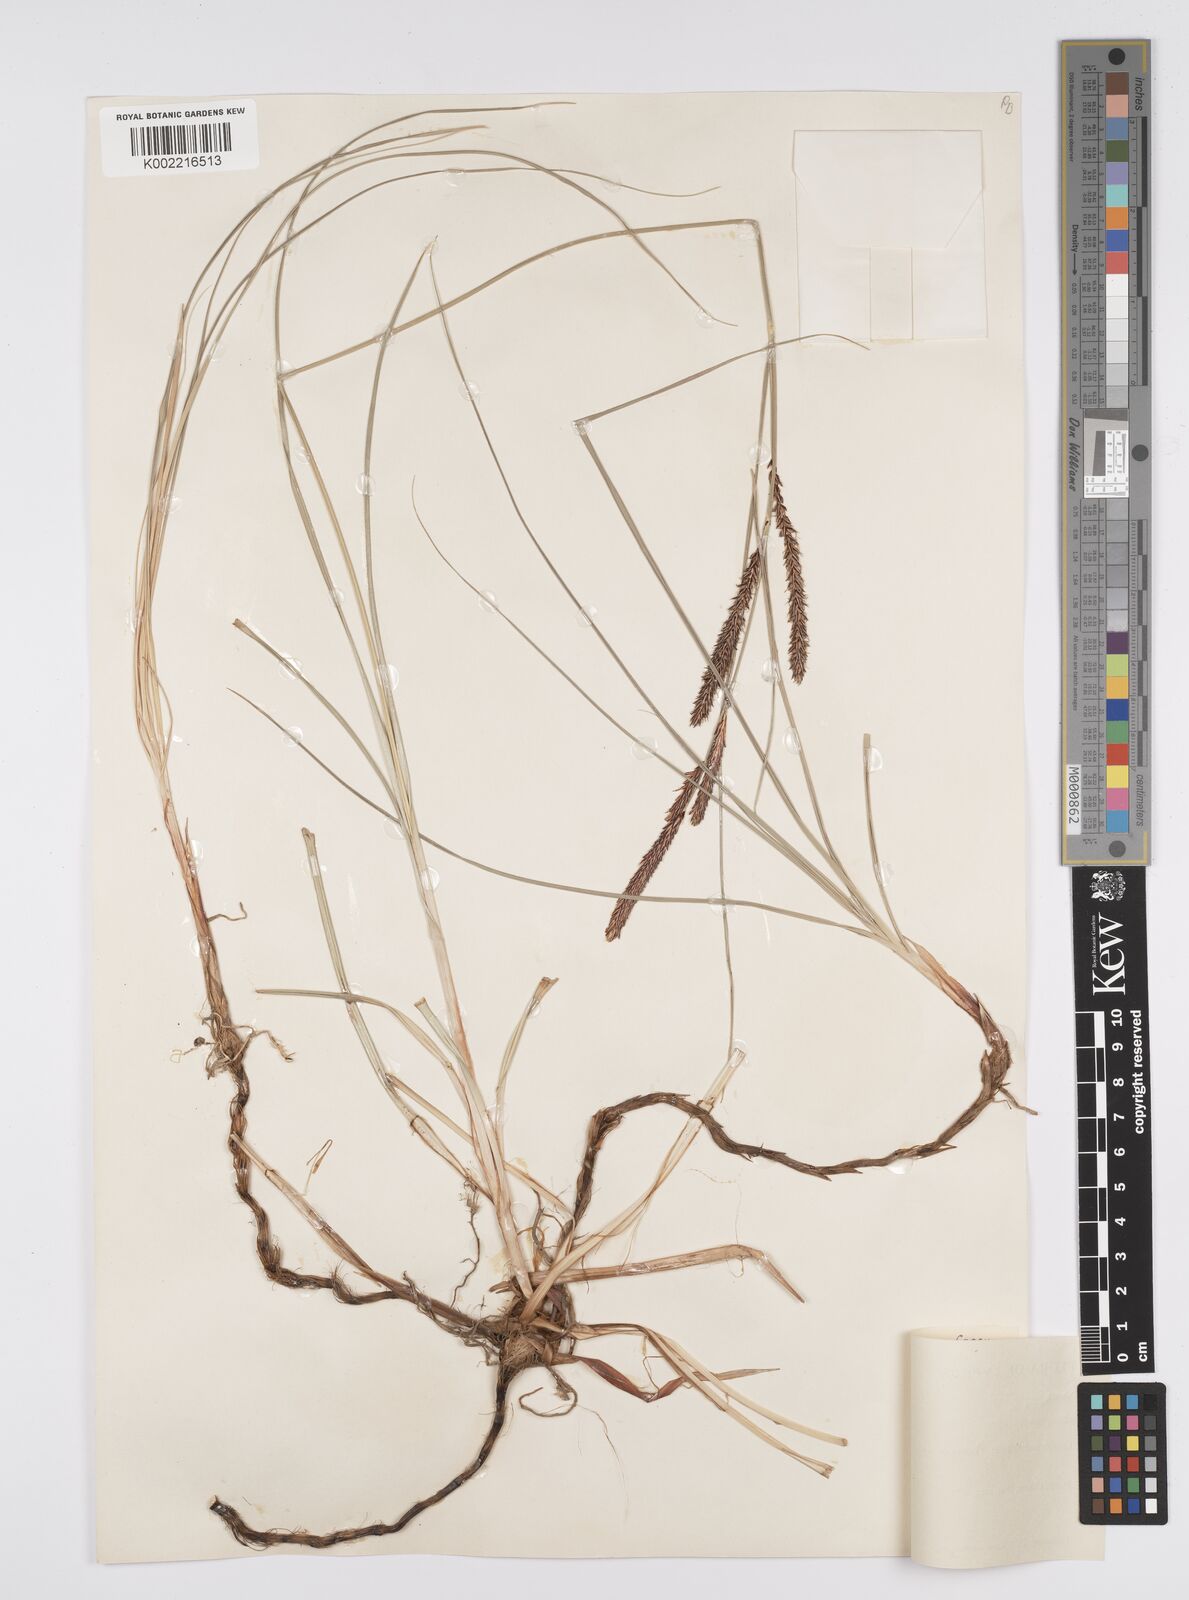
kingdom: Plantae
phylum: Tracheophyta
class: Liliopsida
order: Poales
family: Cyperaceae
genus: Carex
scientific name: Carex flacca
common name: Glaucous sedge
